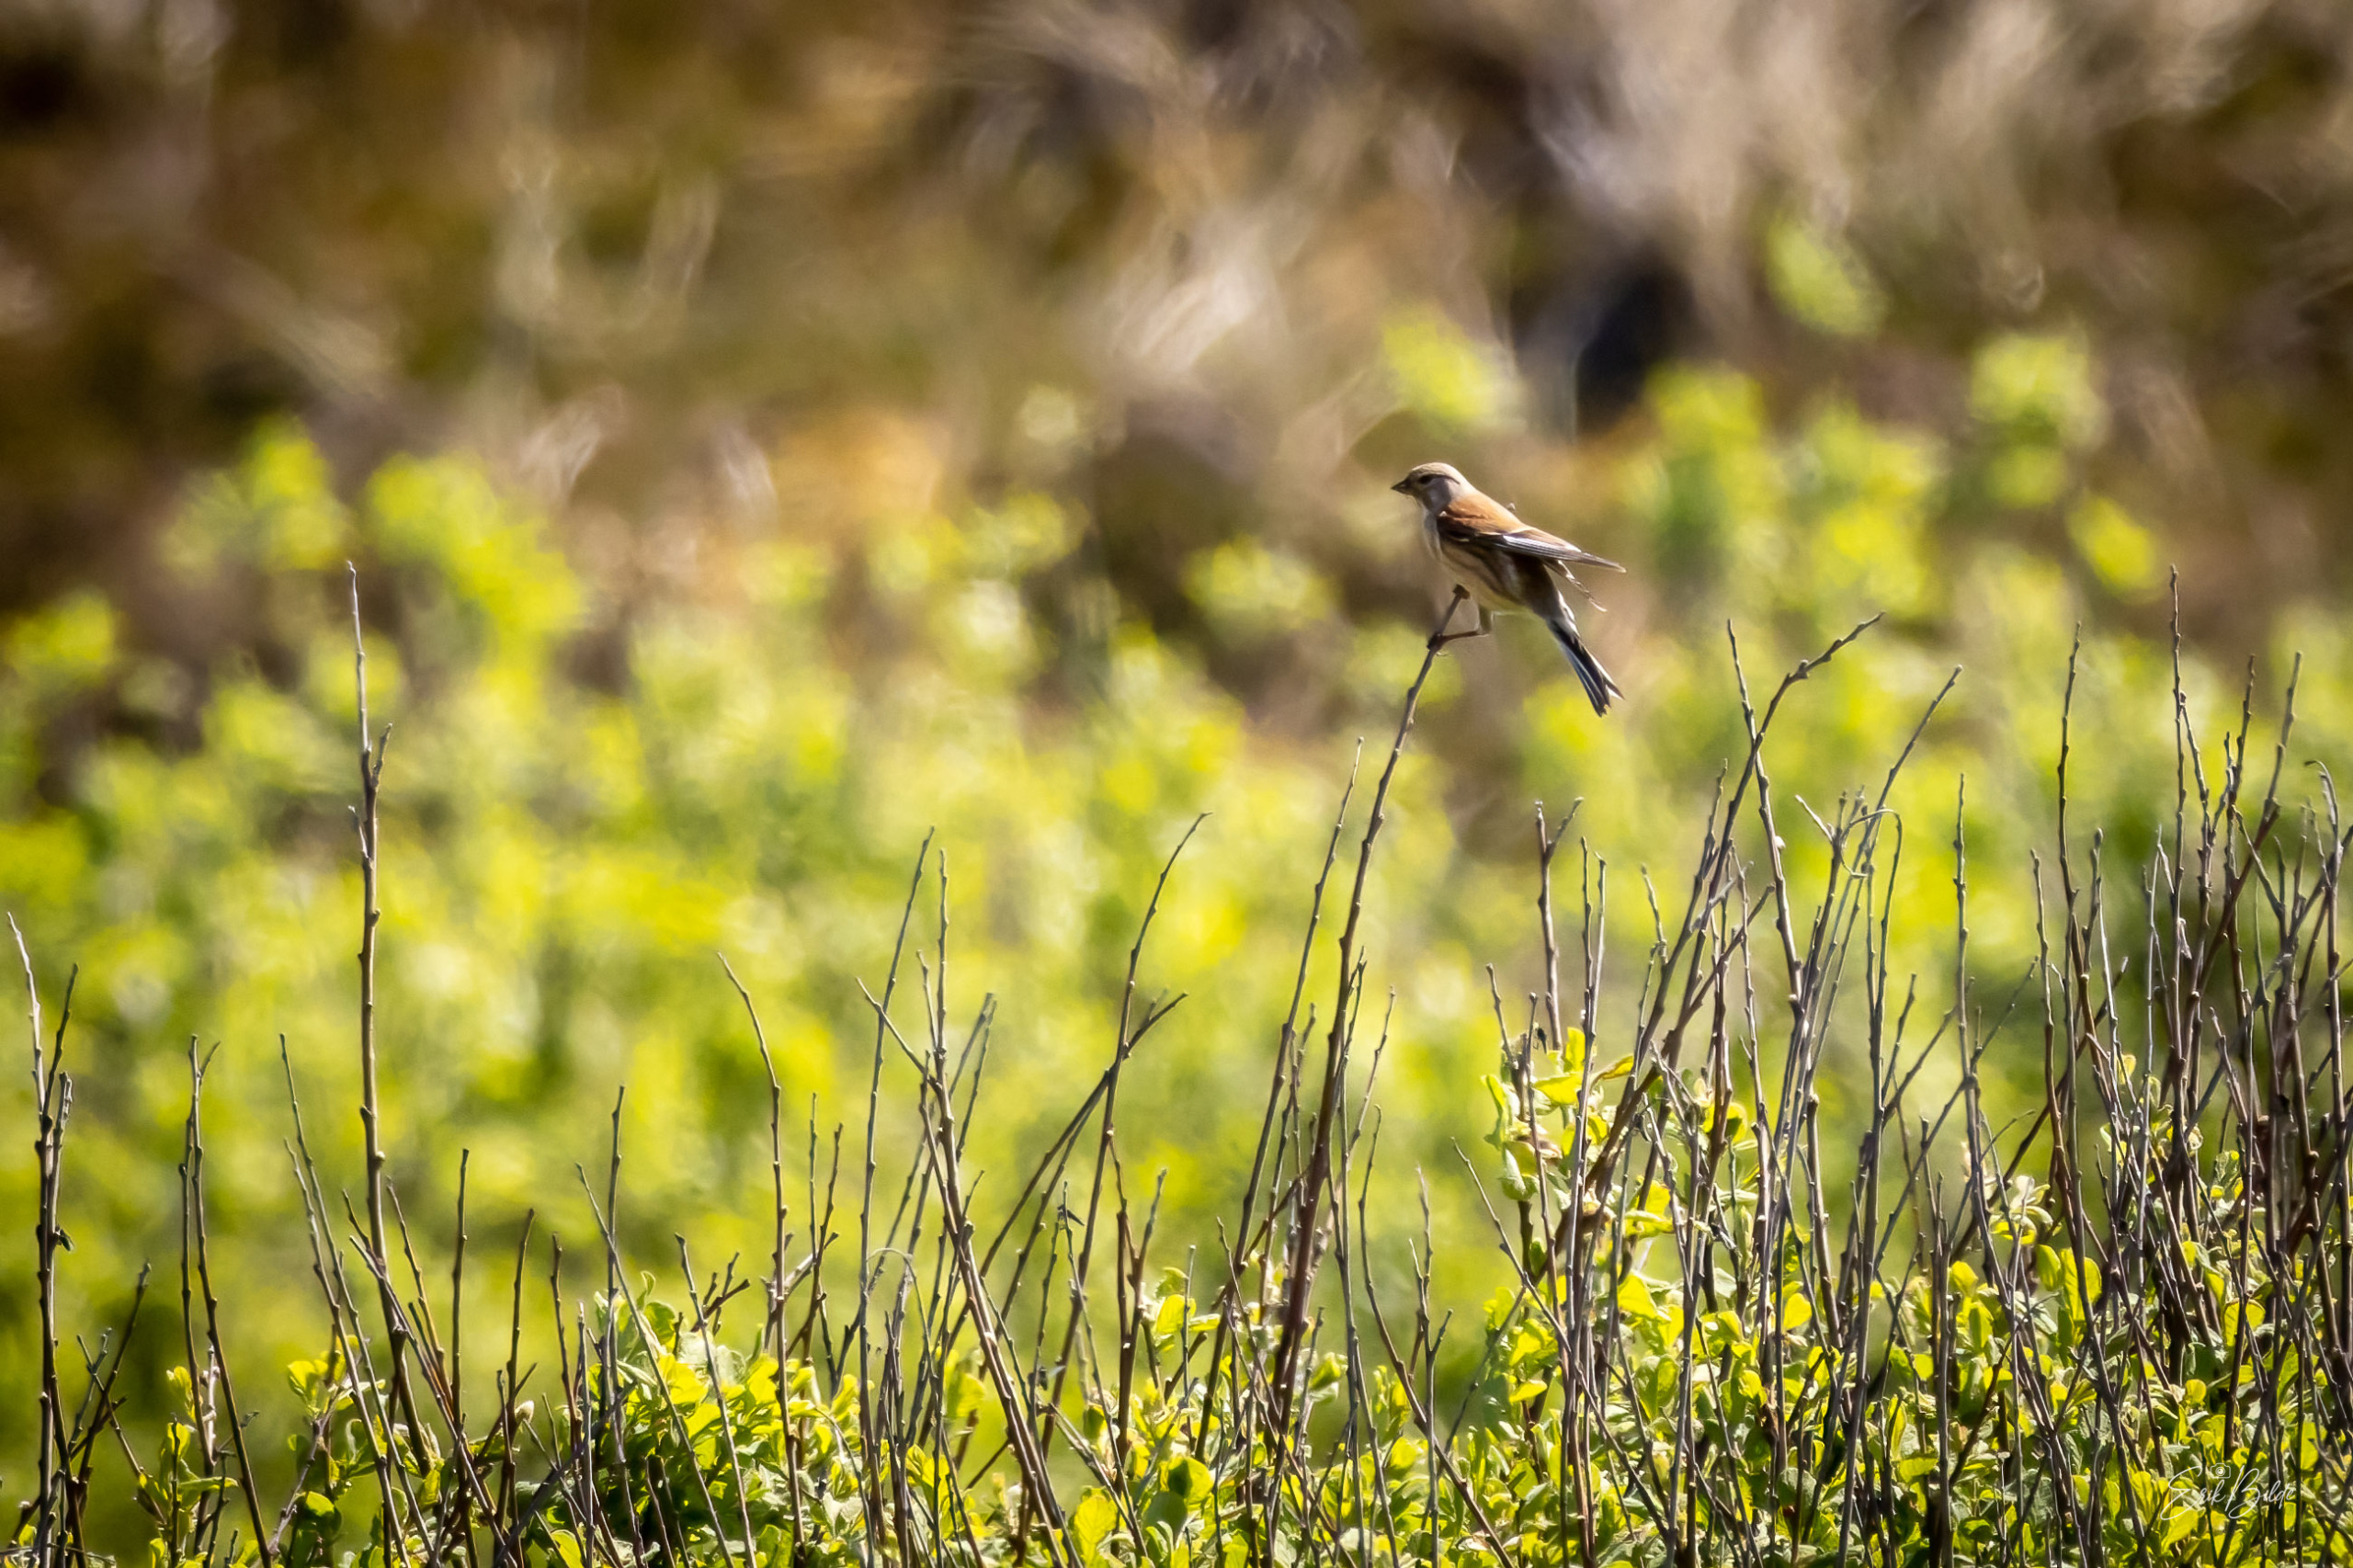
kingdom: Animalia
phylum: Chordata
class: Aves
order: Passeriformes
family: Fringillidae
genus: Linaria
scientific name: Linaria cannabina
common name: Tornirisk
